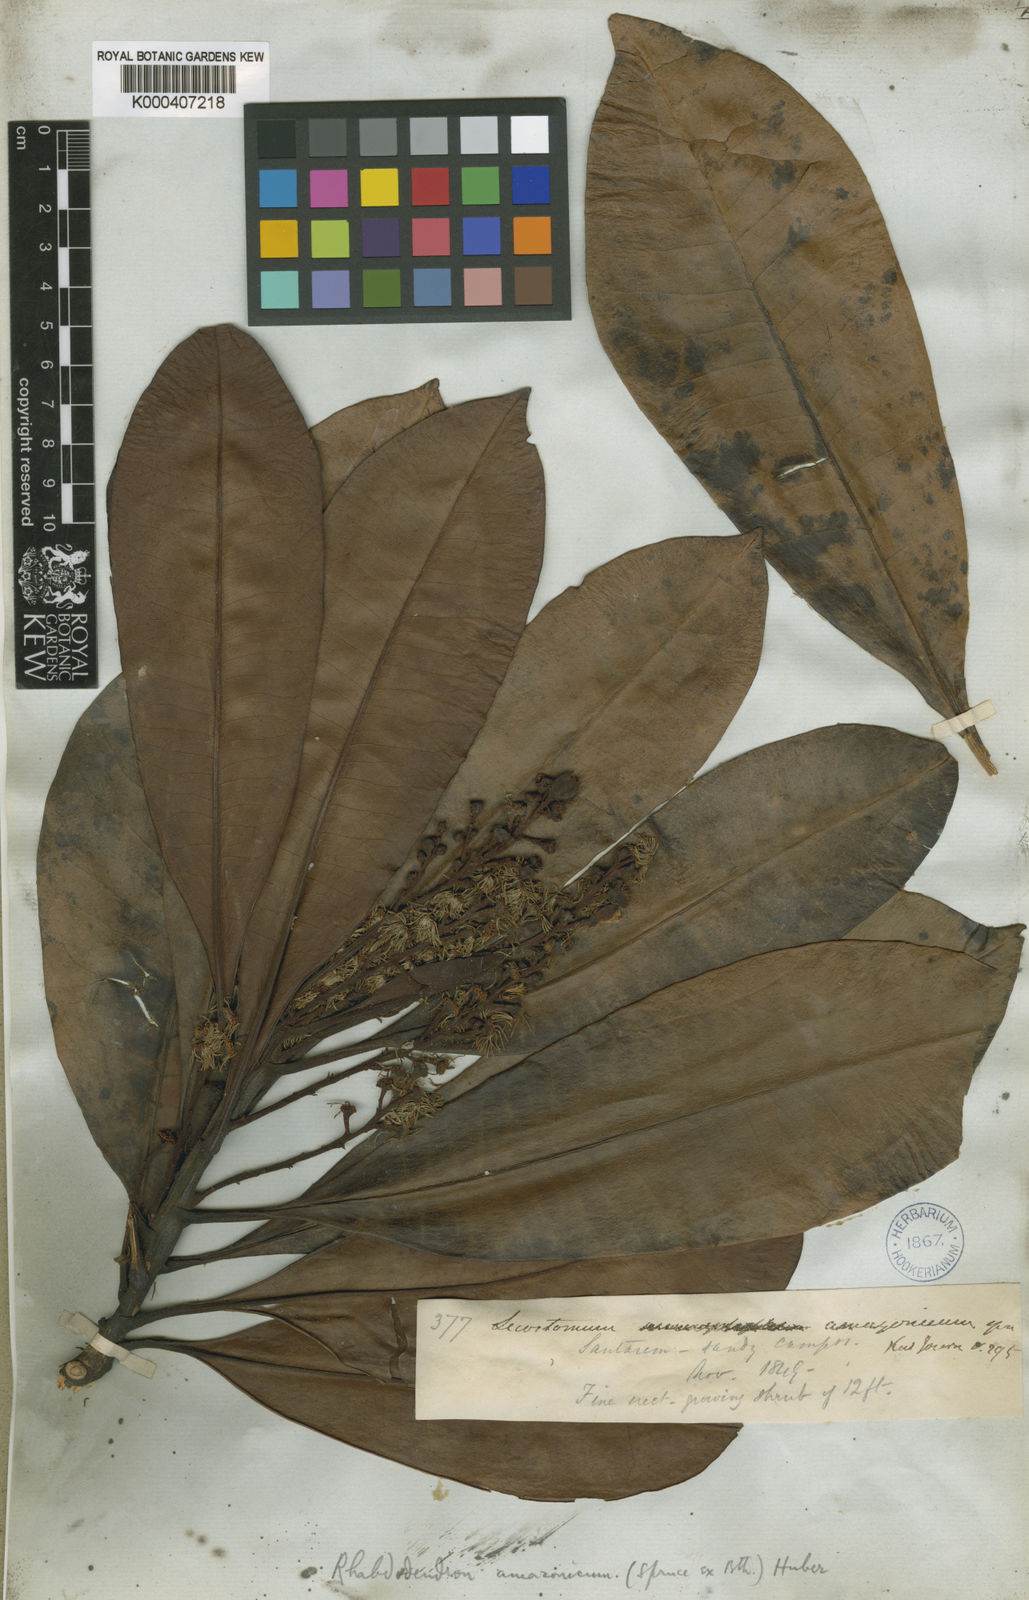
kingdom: Plantae
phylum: Tracheophyta
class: Magnoliopsida
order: Caryophyllales
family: Rhabdodendraceae
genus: Rhabdodendron
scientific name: Rhabdodendron amazonicum
